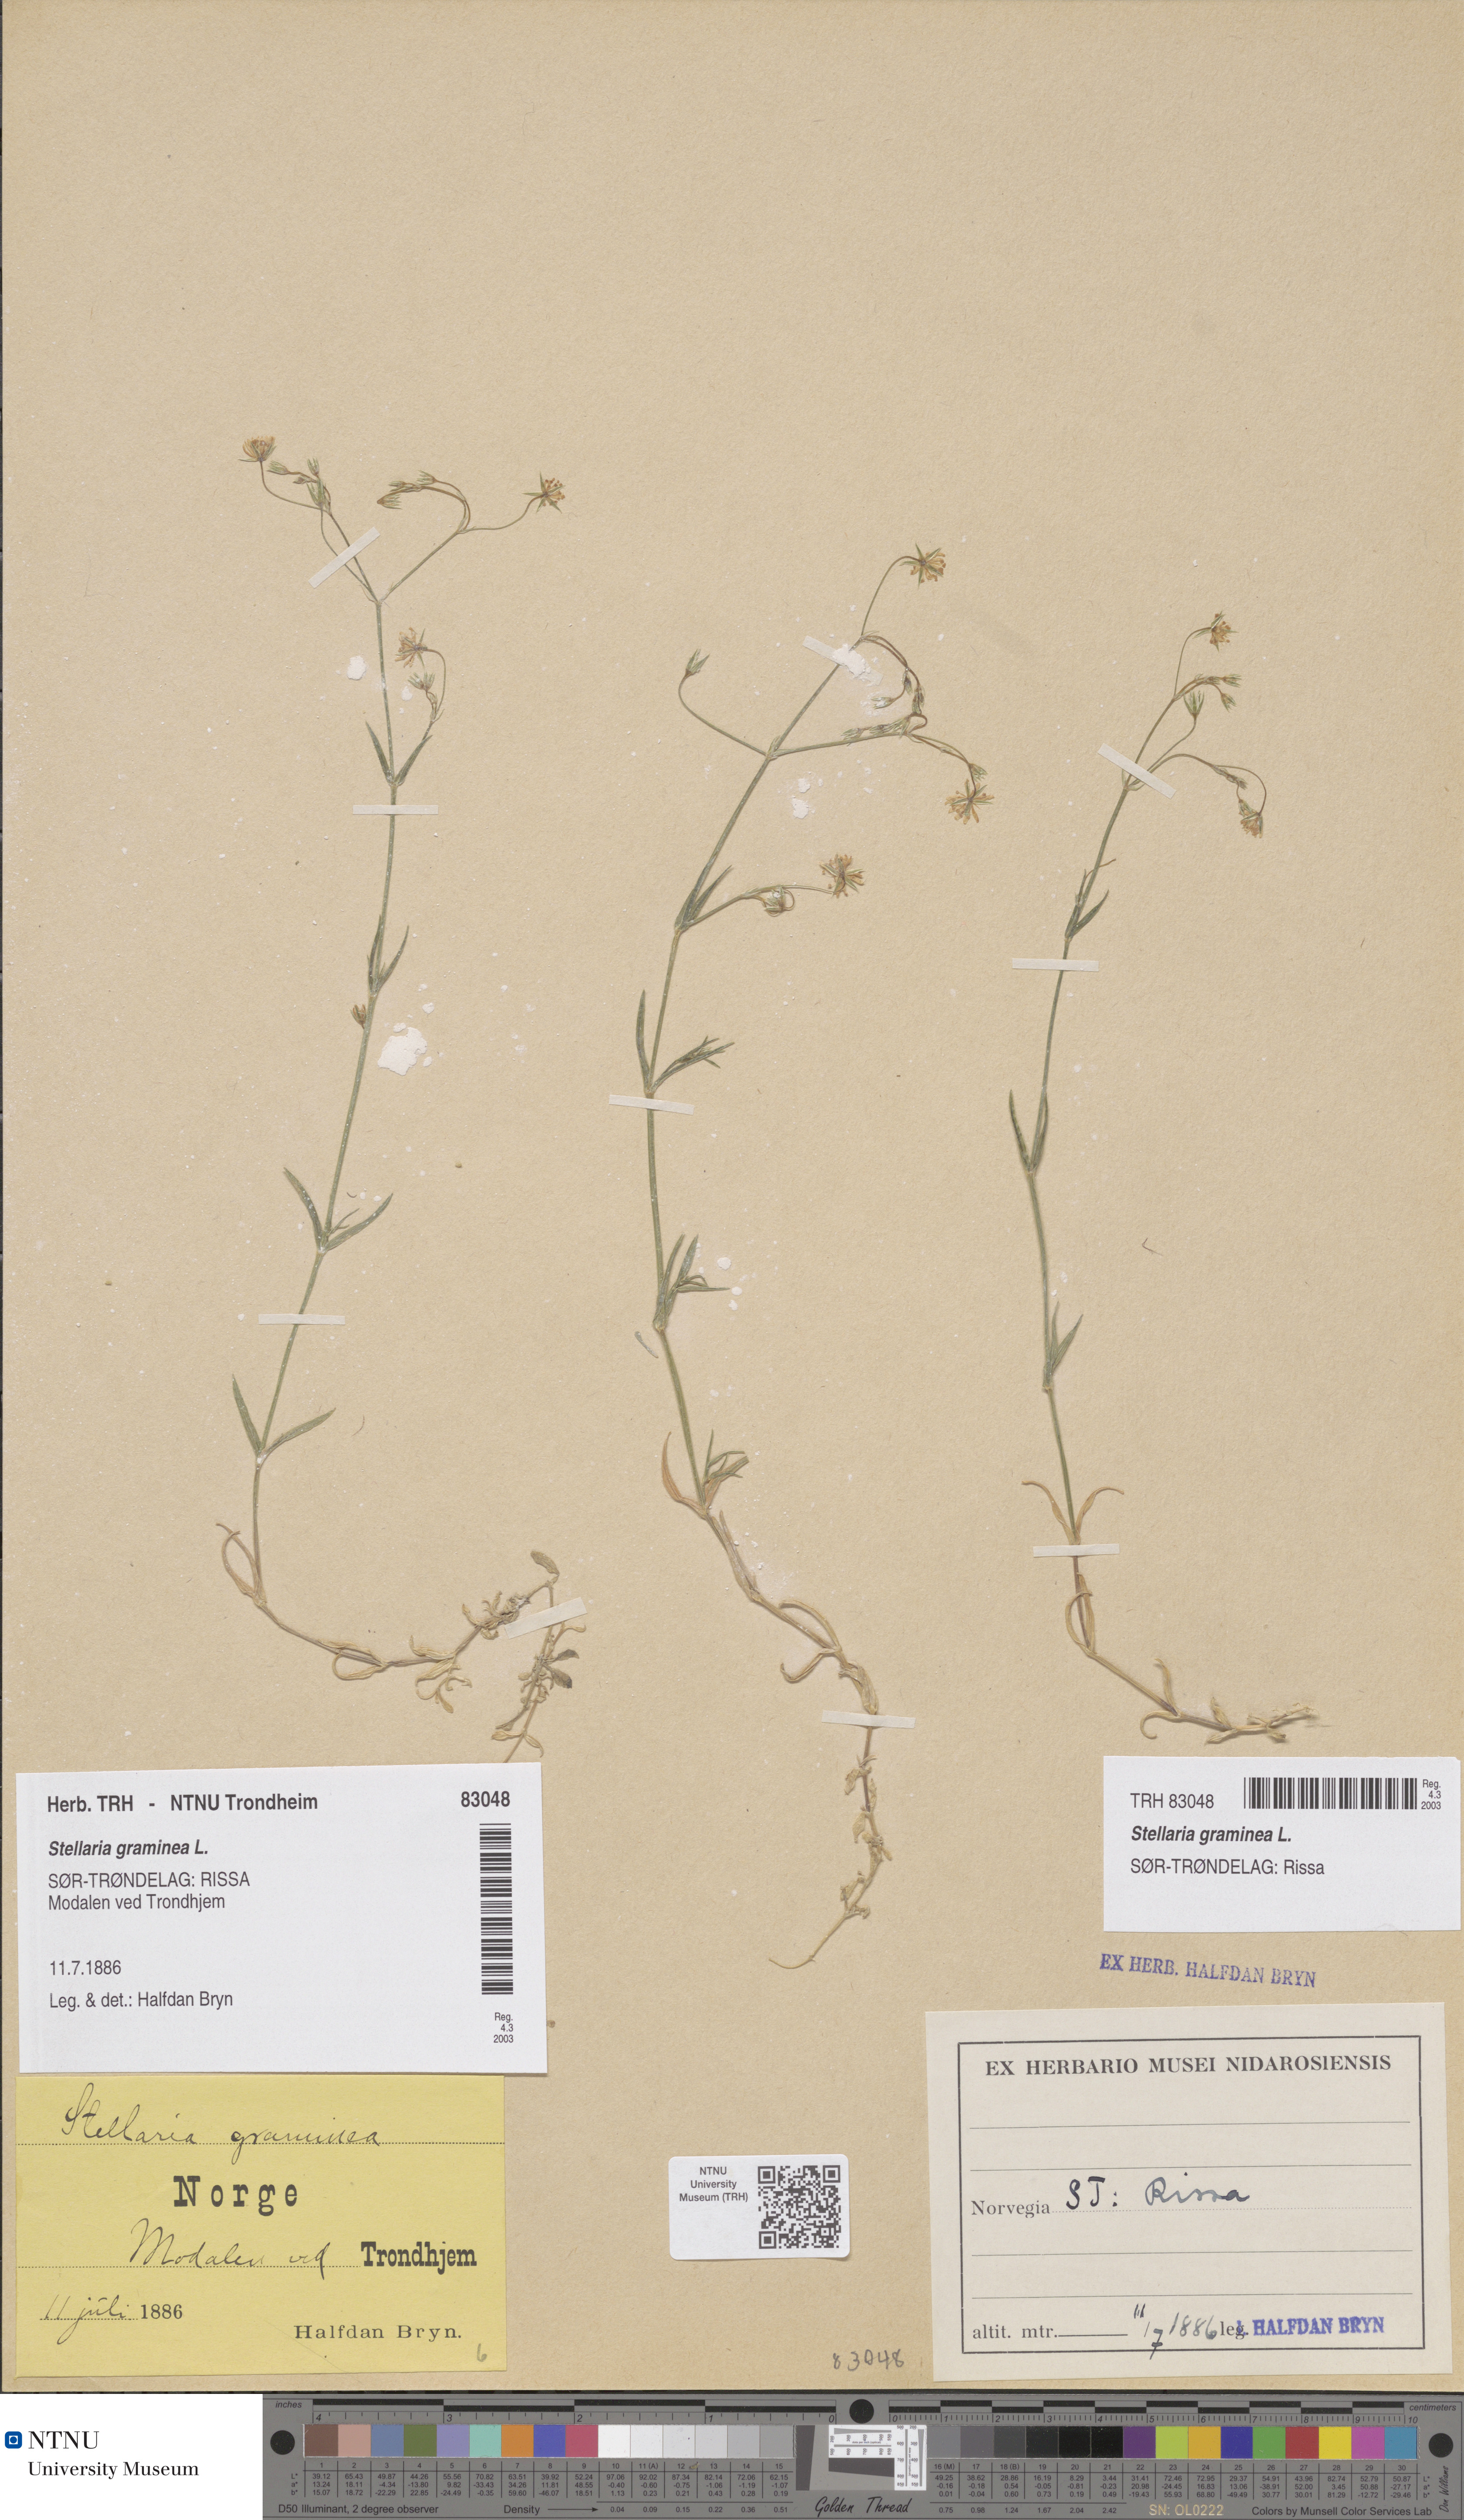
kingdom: Plantae
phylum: Tracheophyta
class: Magnoliopsida
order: Caryophyllales
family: Caryophyllaceae
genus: Stellaria
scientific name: Stellaria graminea
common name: Grass-like starwort
